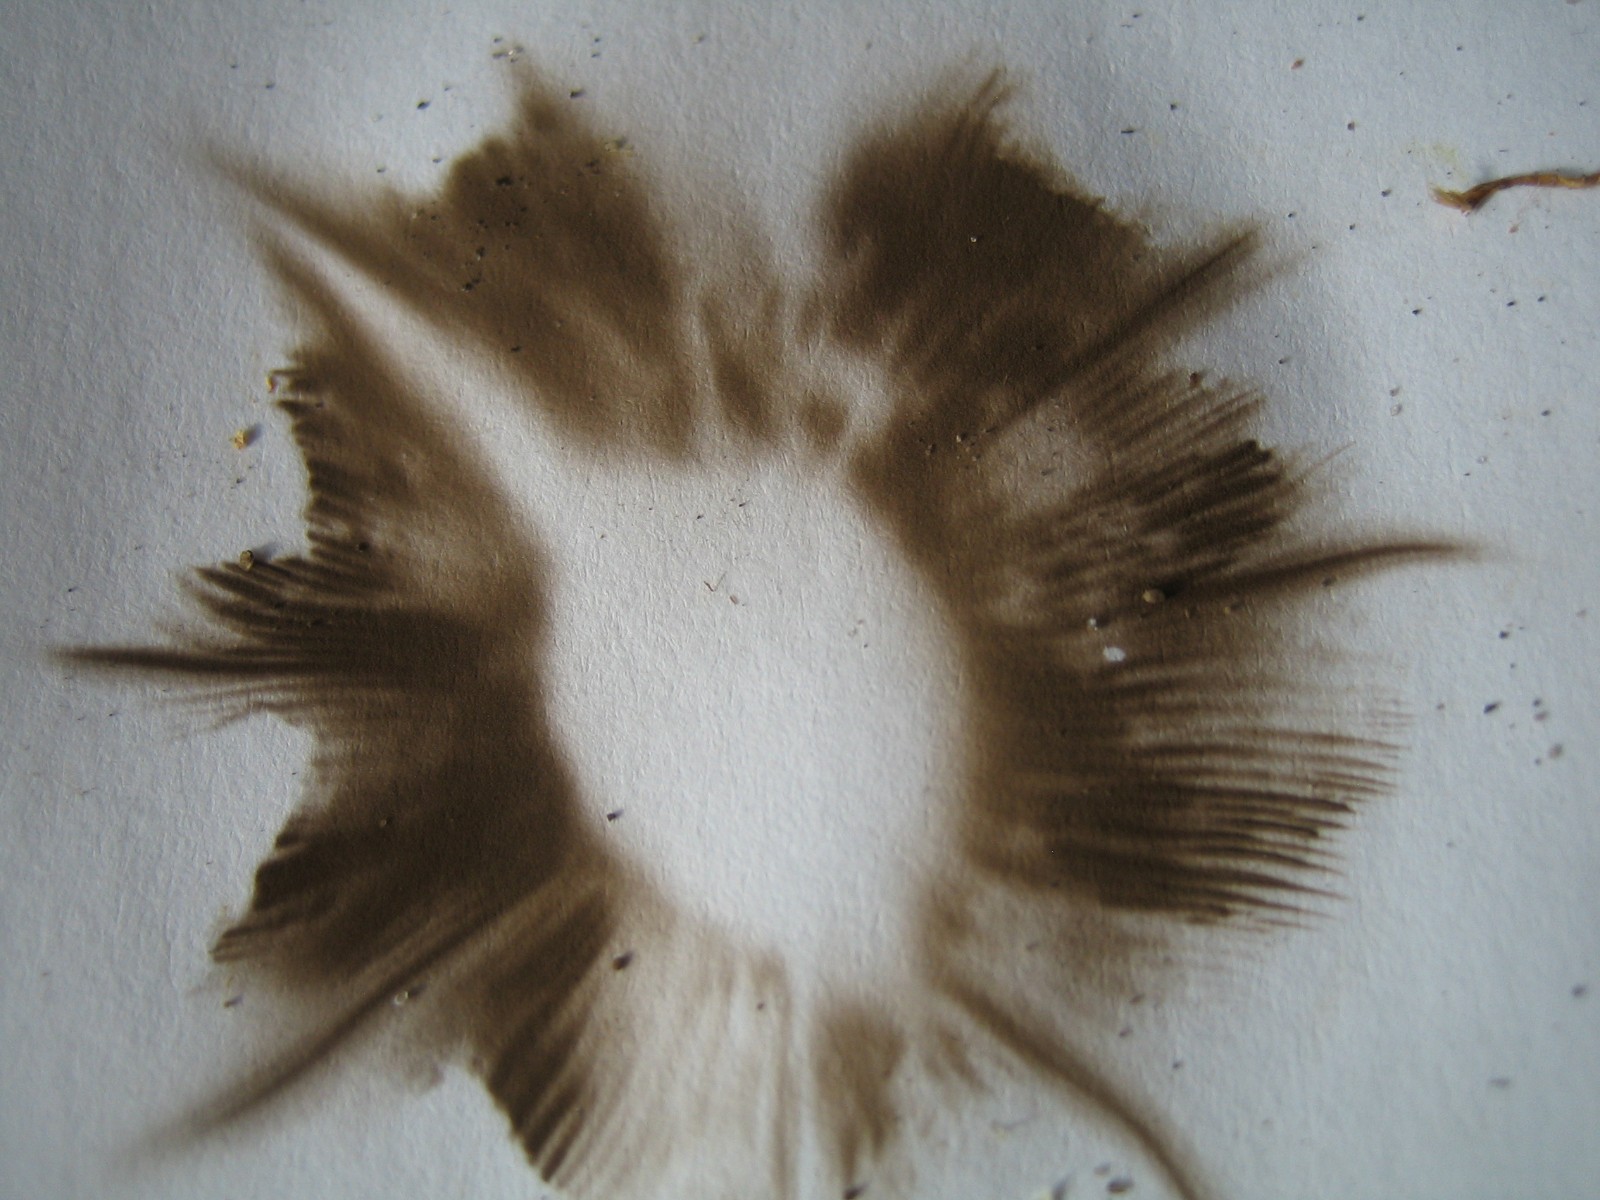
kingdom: Fungi
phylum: Basidiomycota
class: Agaricomycetes
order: Agaricales
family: Agaricaceae
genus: Agaricus
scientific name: Agaricus
